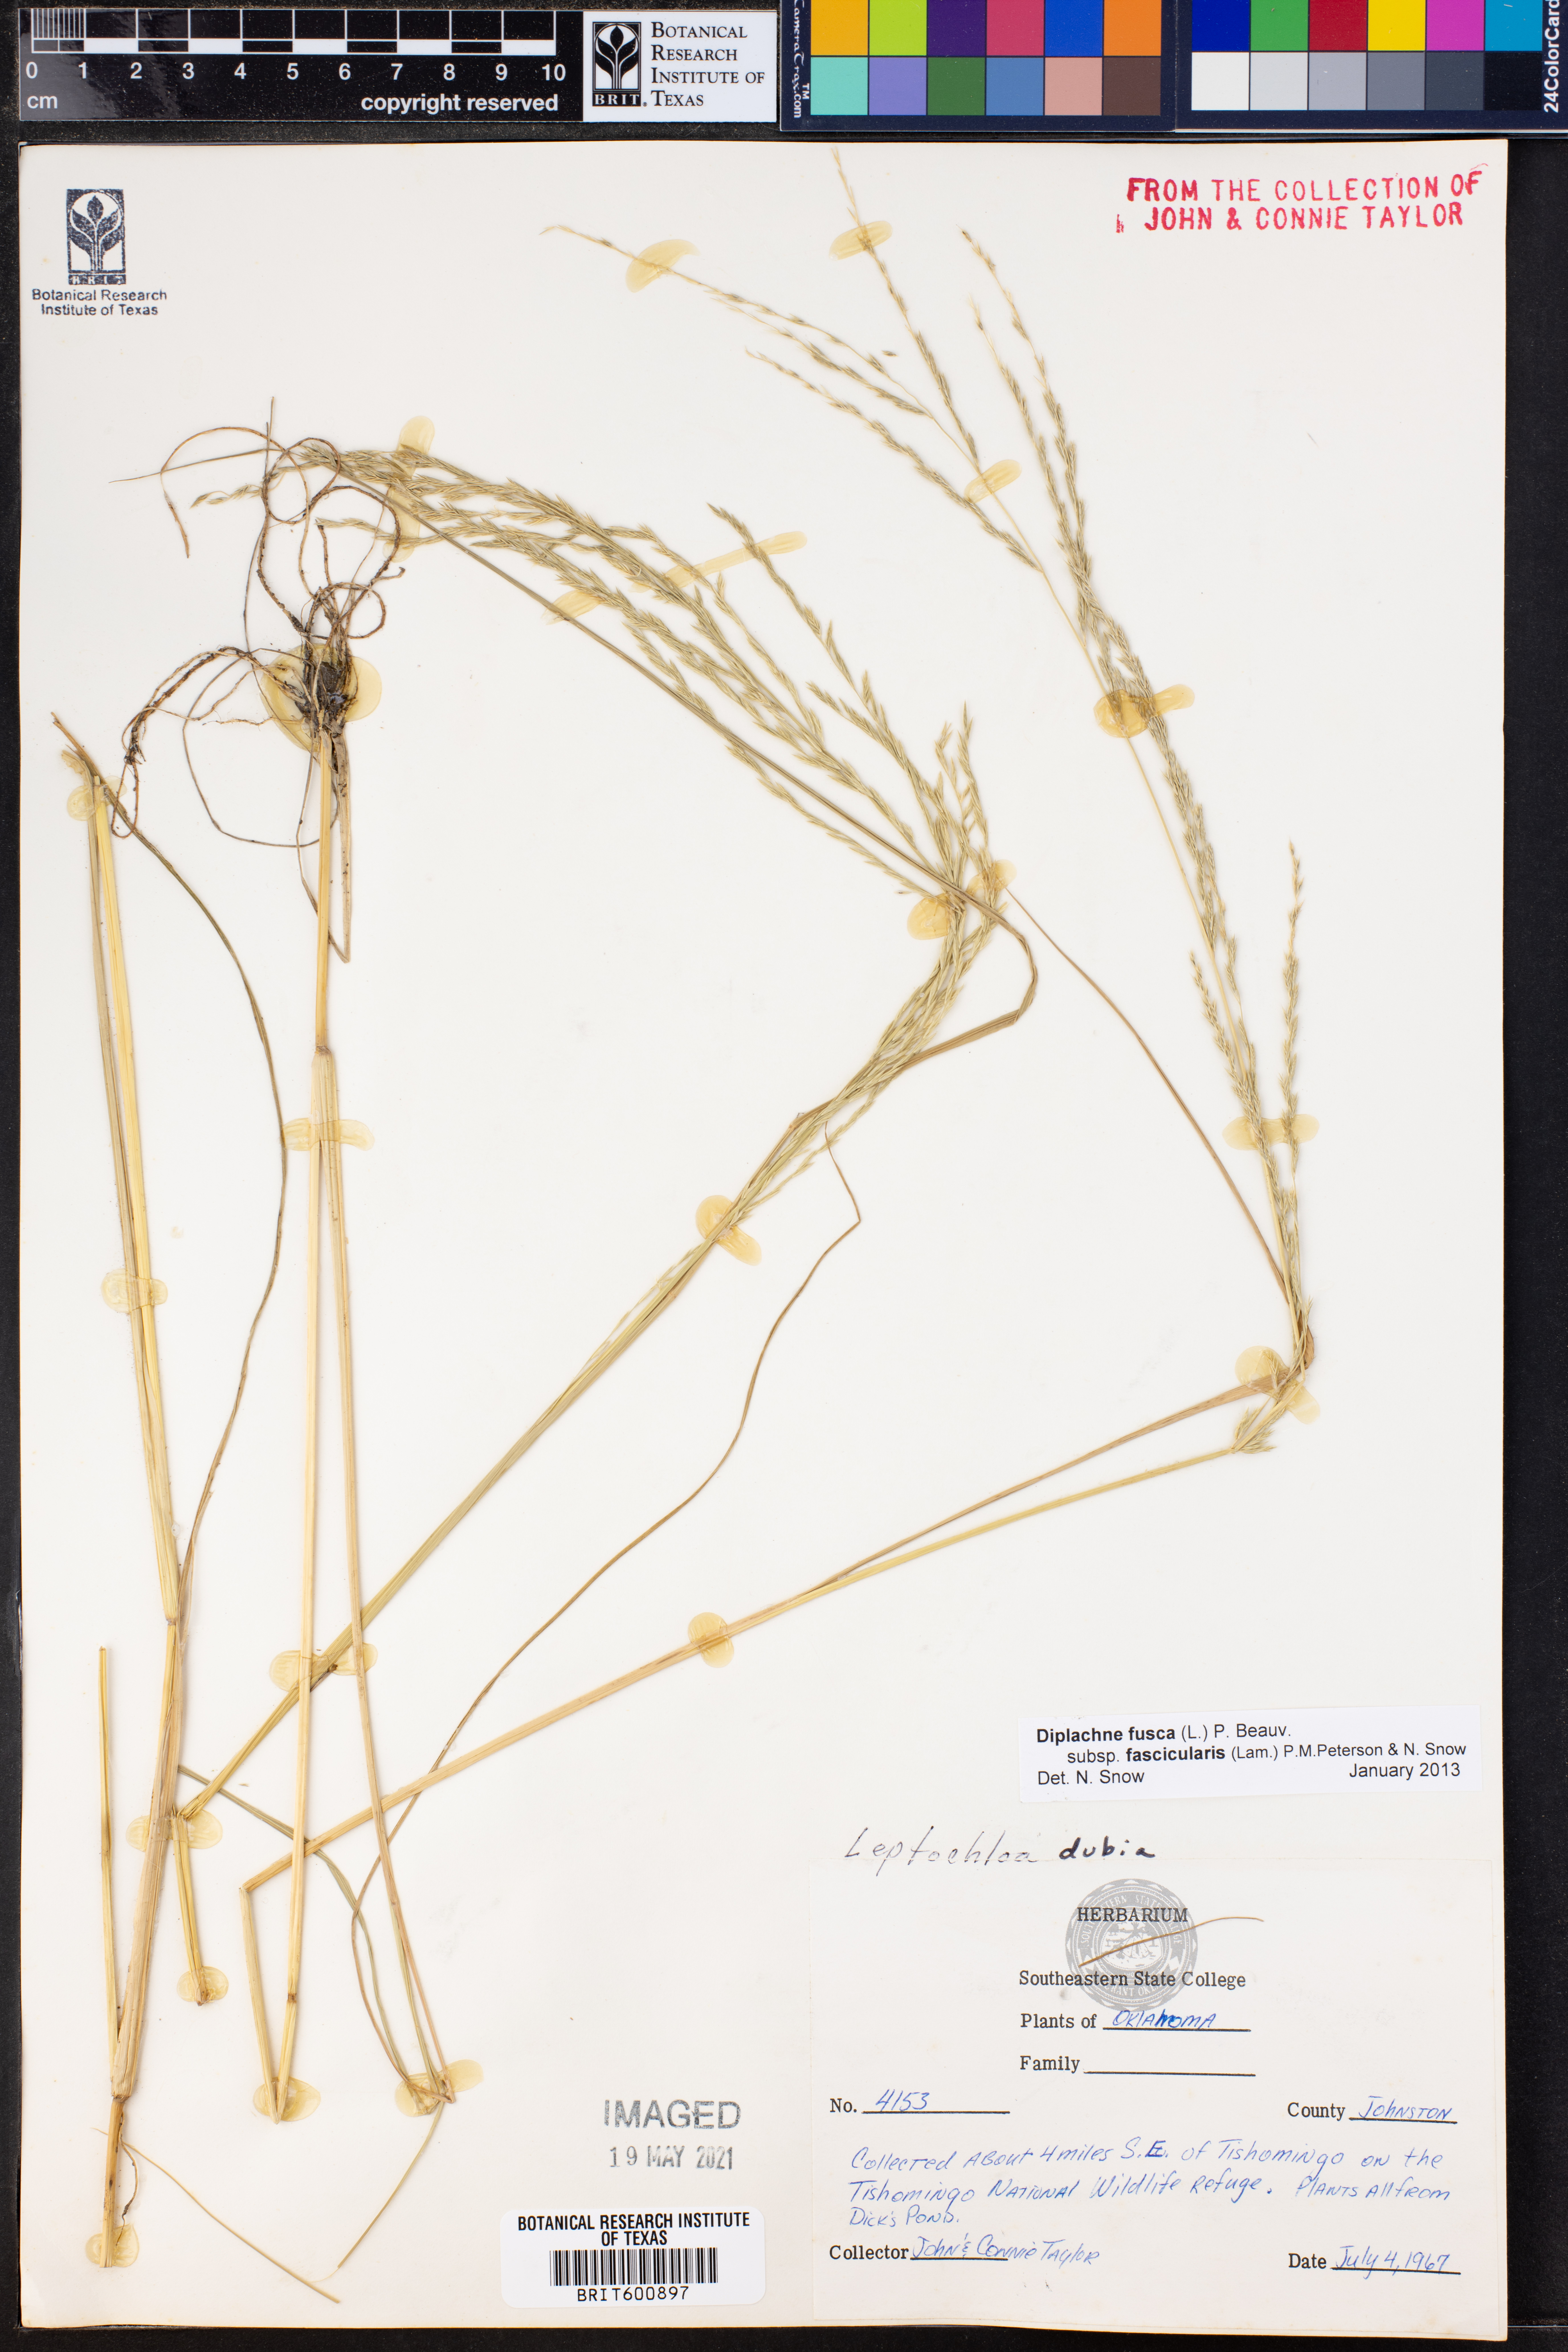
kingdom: Plantae
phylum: Tracheophyta
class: Liliopsida
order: Poales
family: Poaceae
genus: Diplachne
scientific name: Diplachne fusca
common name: Brown beetle grass
